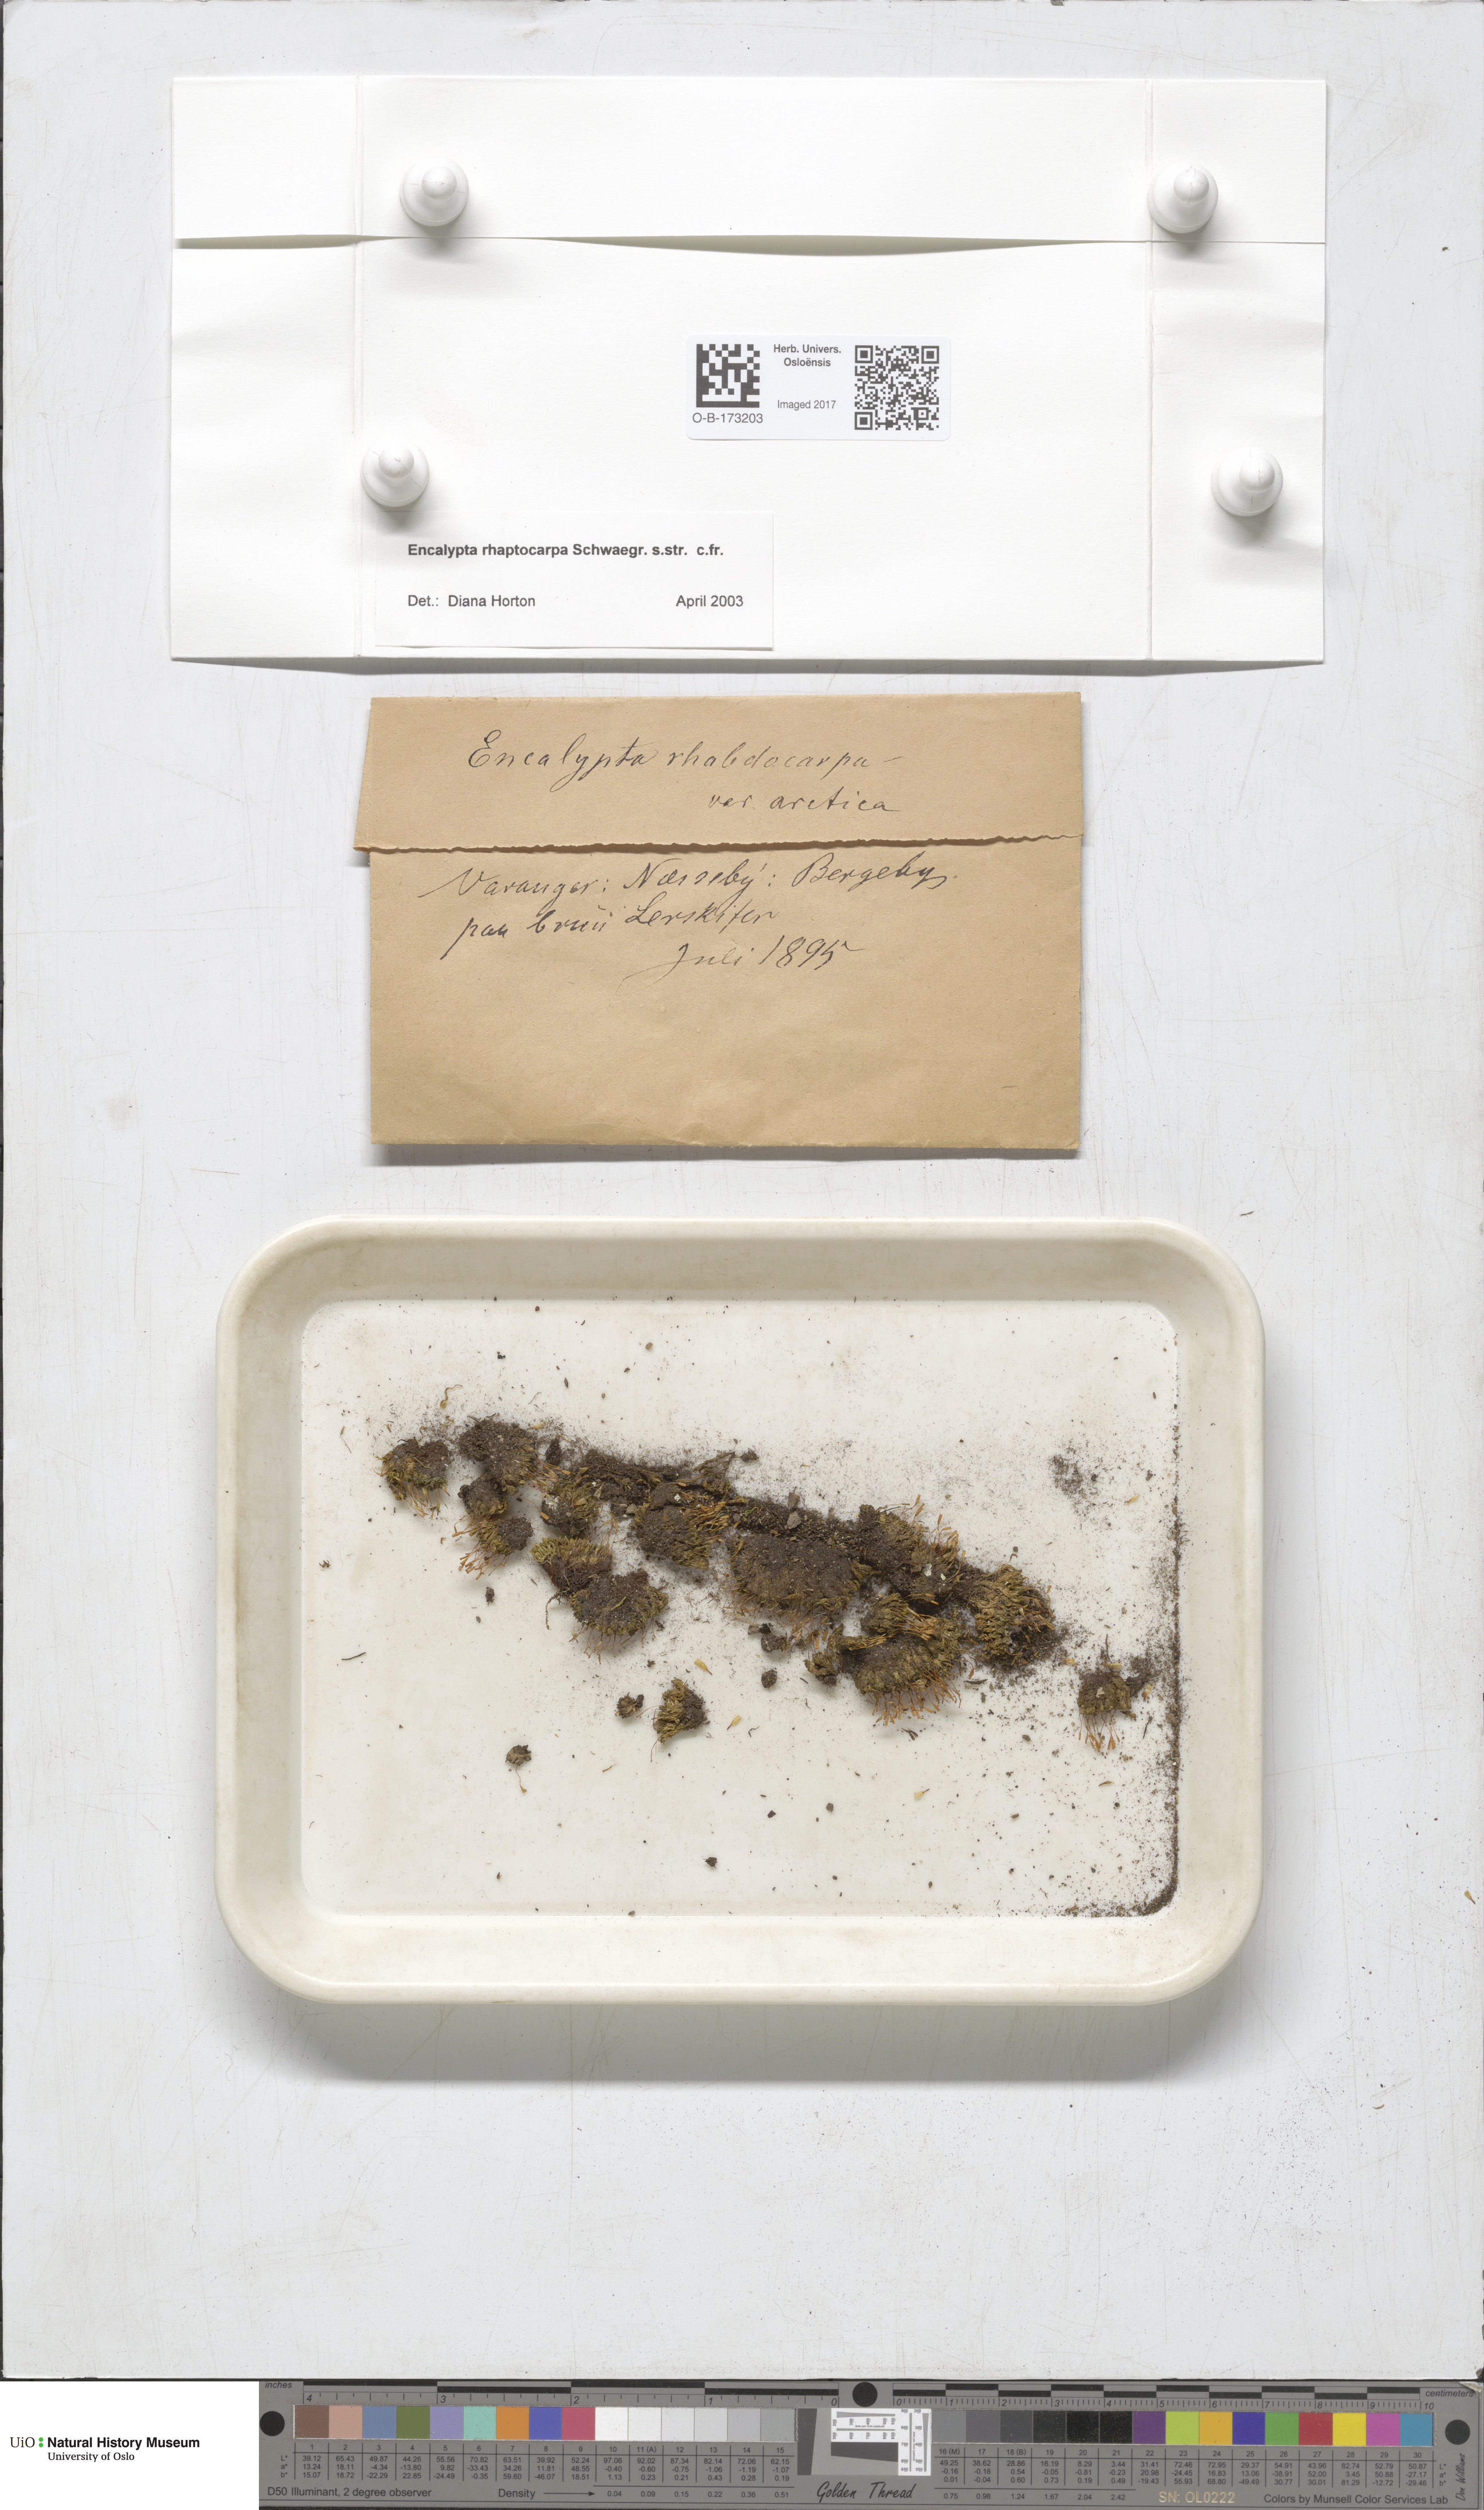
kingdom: Plantae
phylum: Bryophyta
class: Bryopsida
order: Encalyptales
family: Encalyptaceae
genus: Encalypta
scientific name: Encalypta rhaptocarpa
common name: Ribbed extinguisher moss
